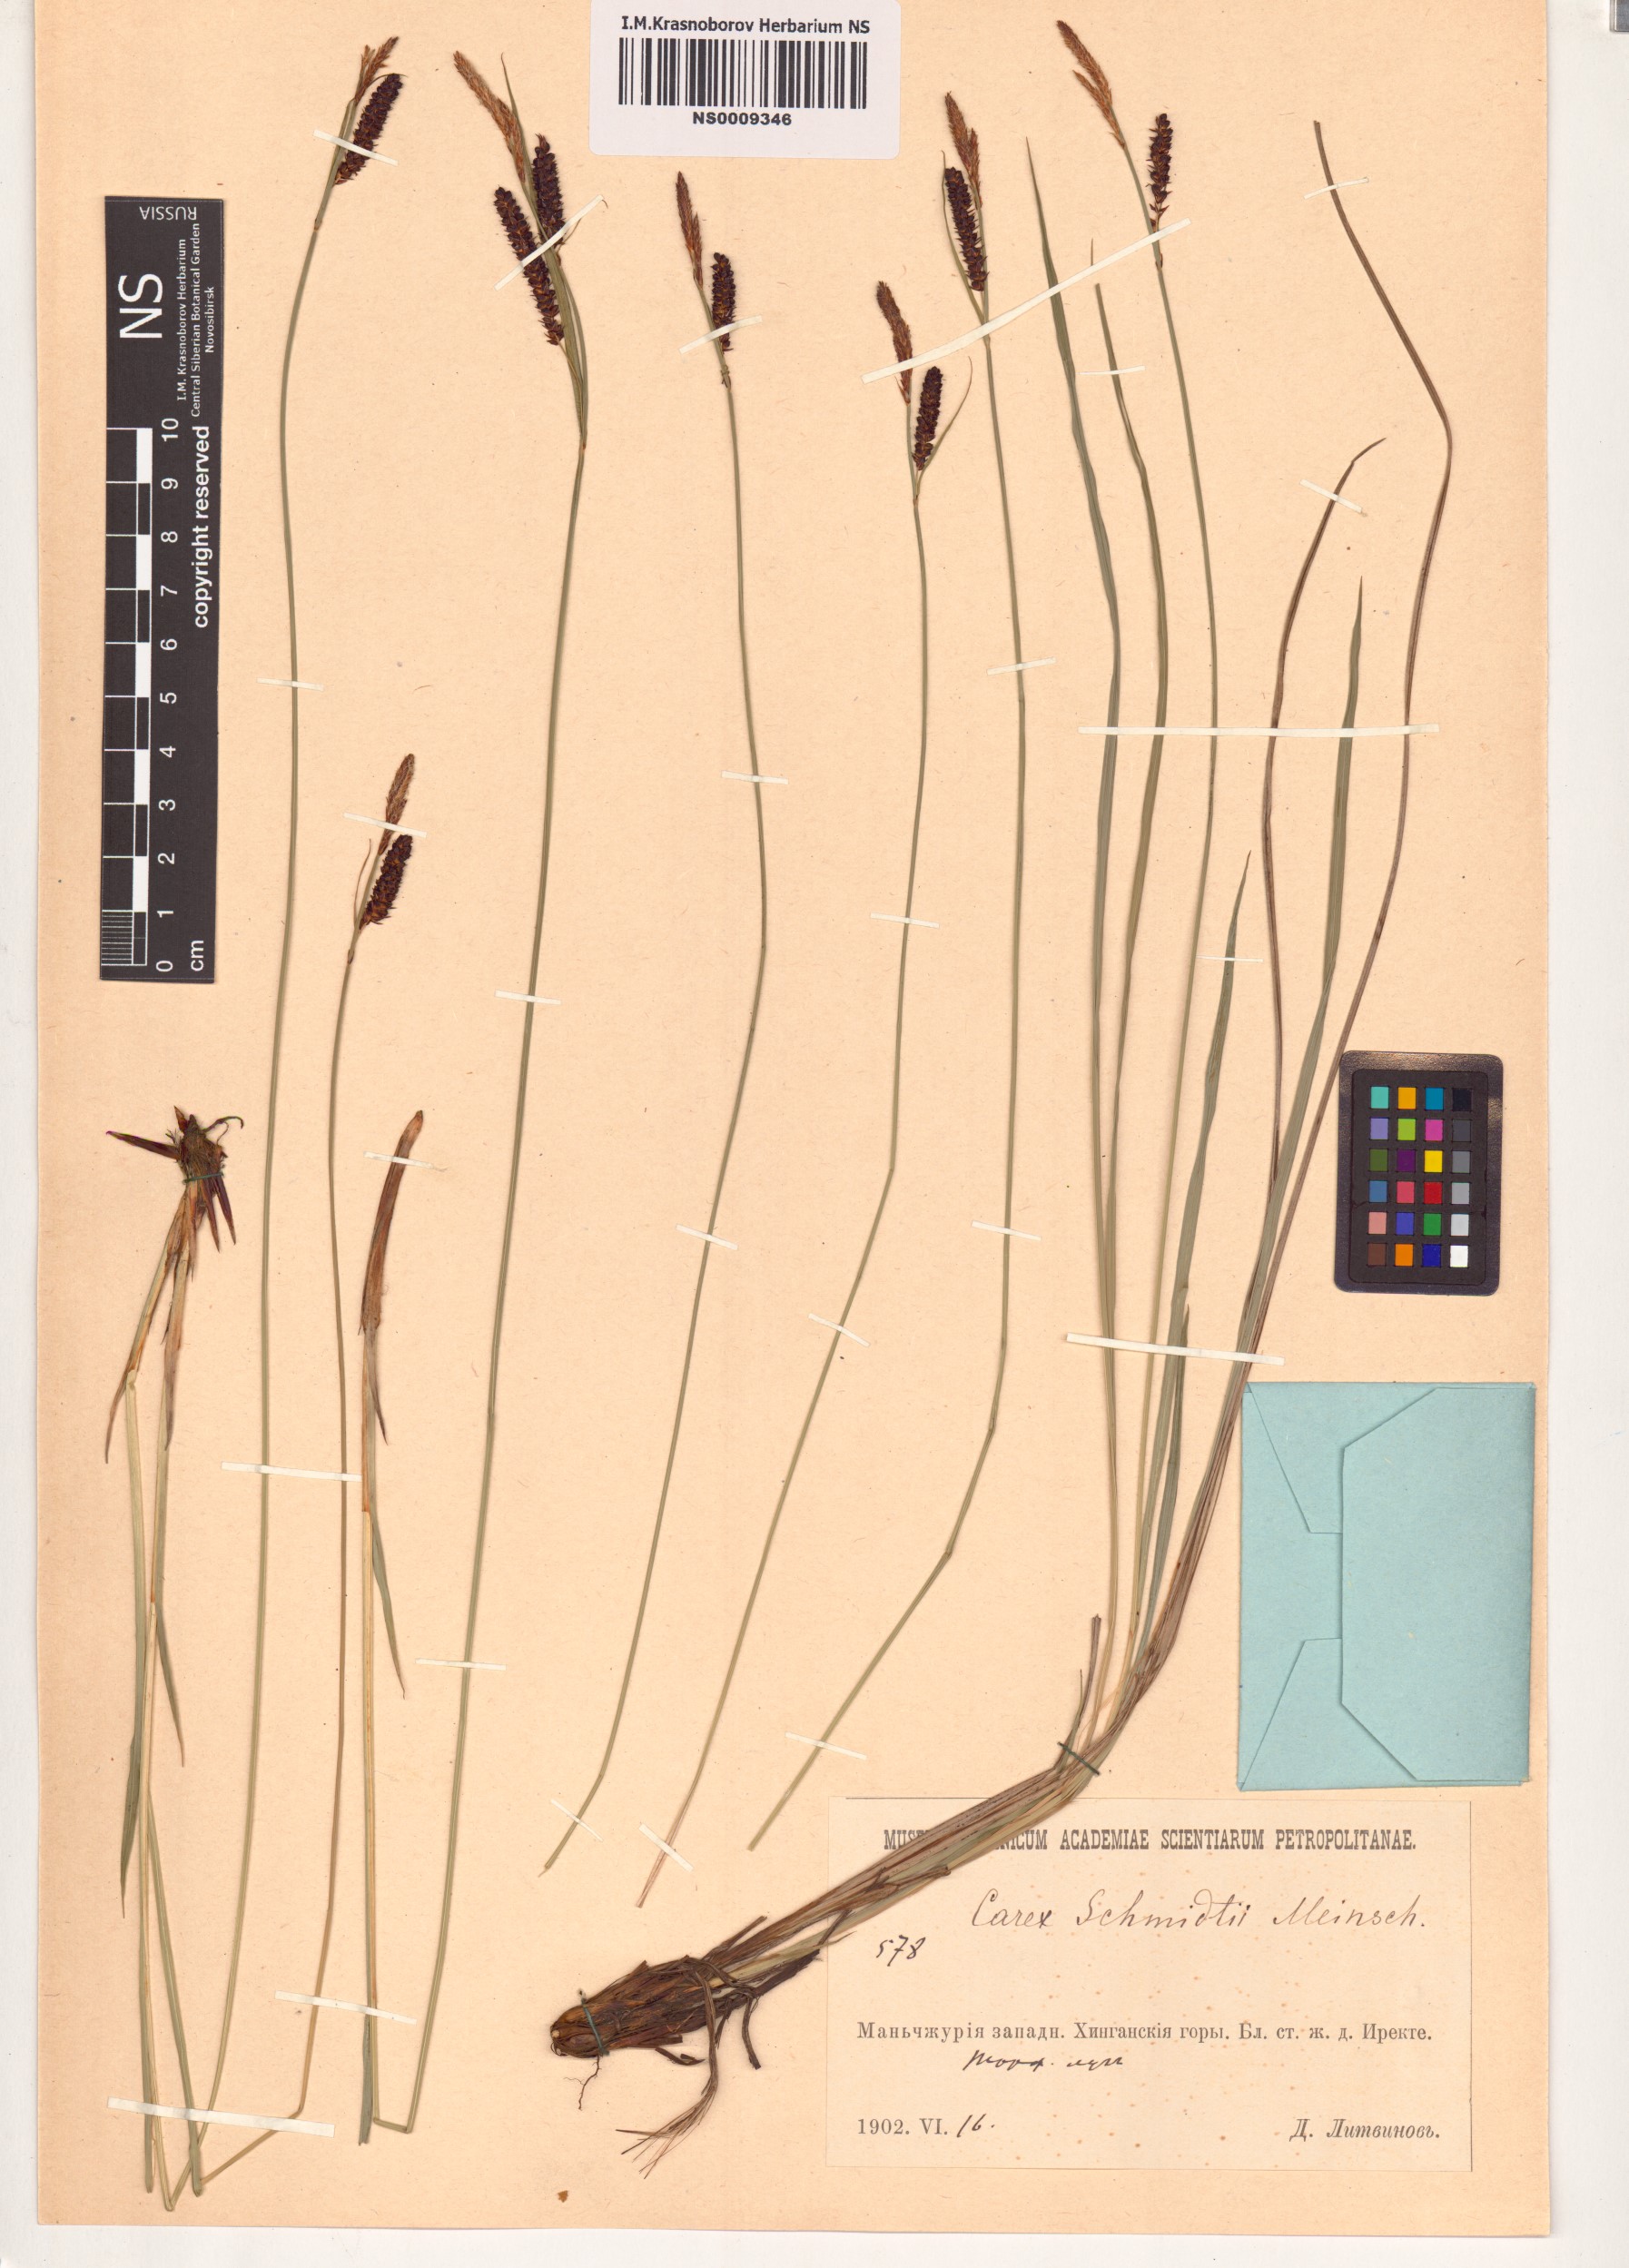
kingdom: Plantae
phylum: Tracheophyta
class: Liliopsida
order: Poales
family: Cyperaceae
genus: Carex
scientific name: Carex schmidtii
